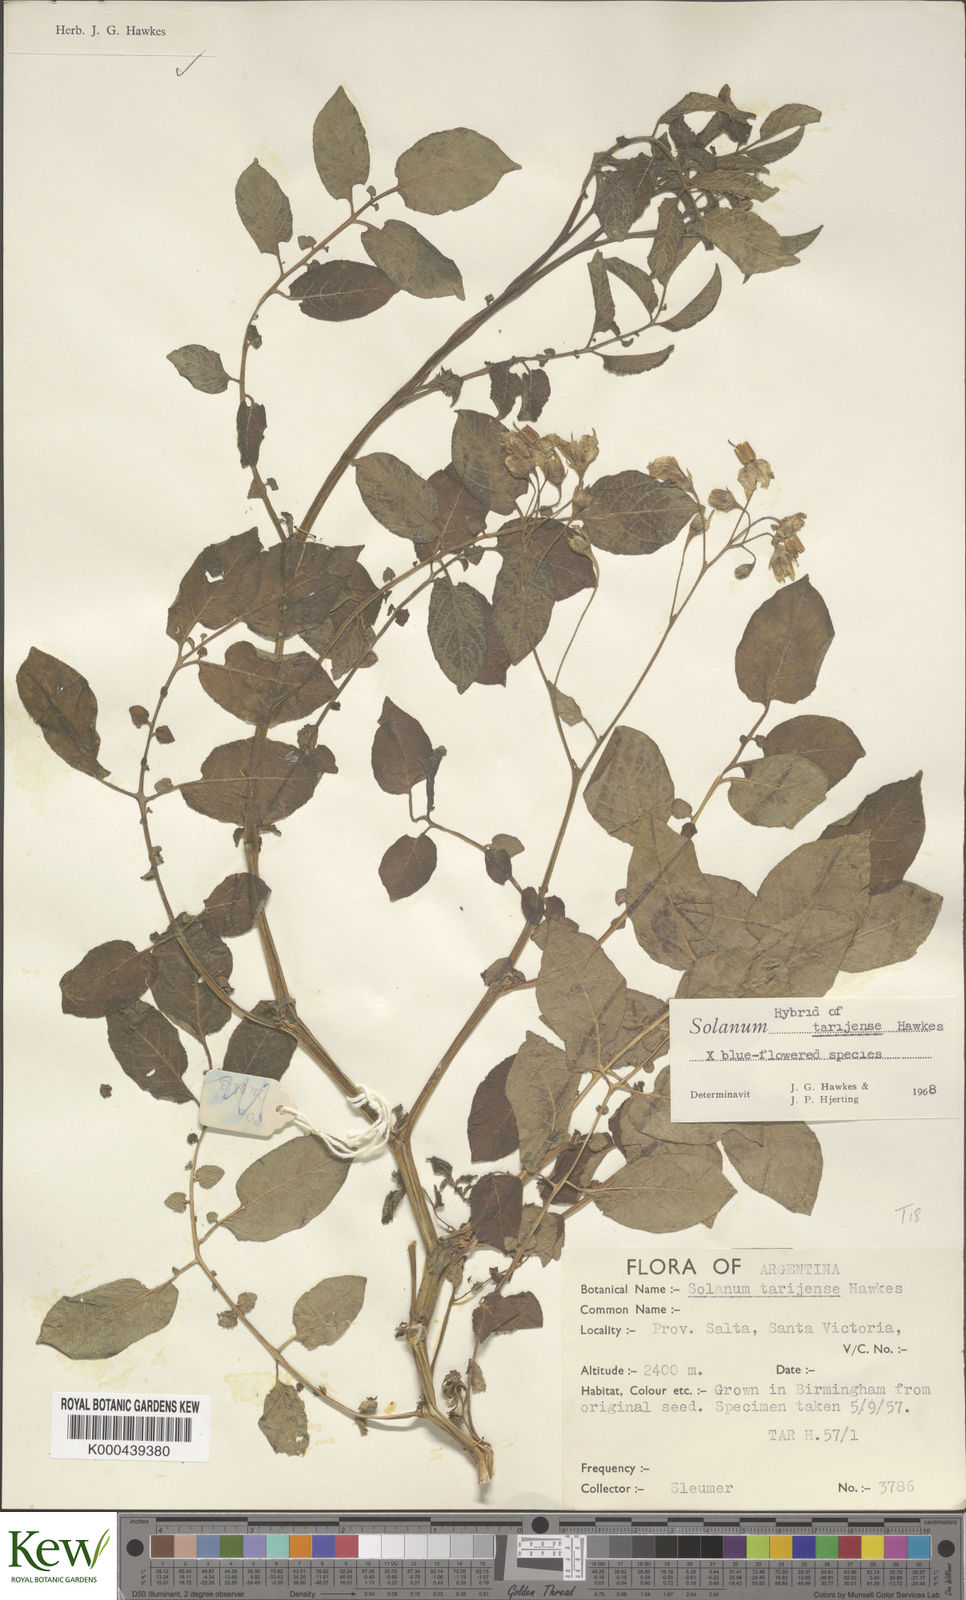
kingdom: Plantae
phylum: Tracheophyta
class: Magnoliopsida
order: Solanales
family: Solanaceae
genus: Solanum
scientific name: Solanum tarijense
